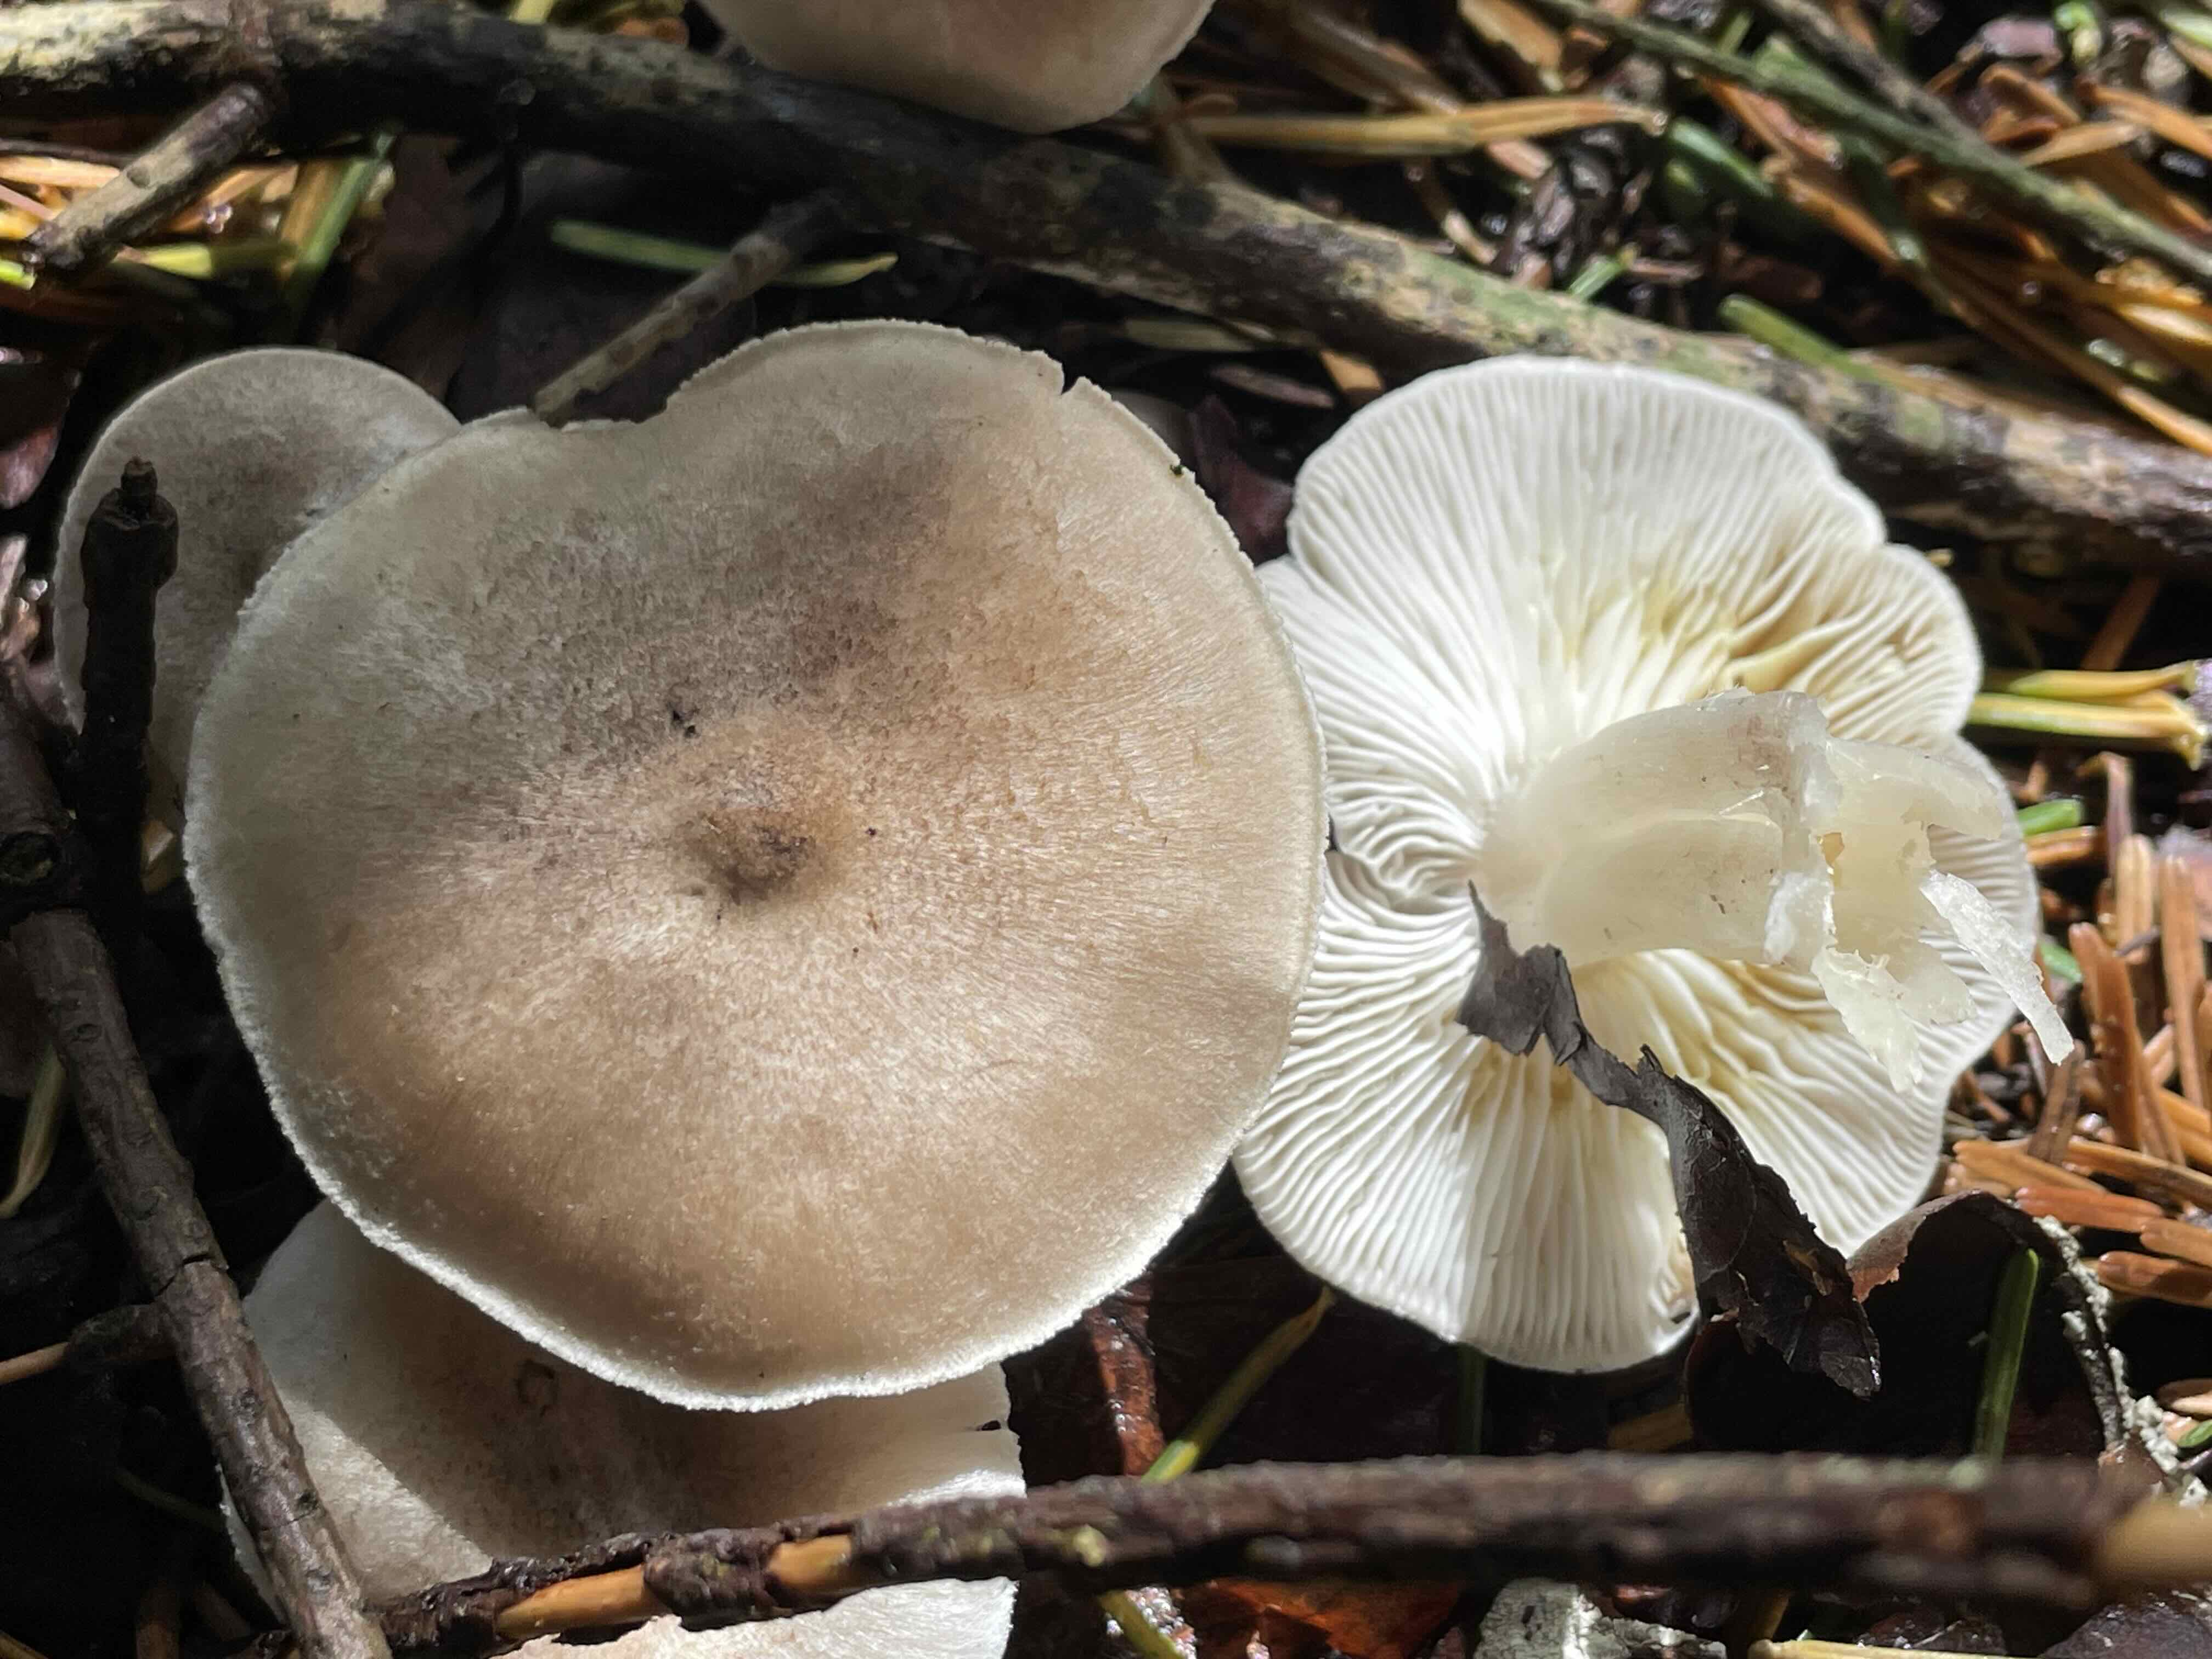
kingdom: Fungi
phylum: Basidiomycota
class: Agaricomycetes
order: Agaricales
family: Tricholomataceae
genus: Tricholoma
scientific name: Tricholoma scalpturatum
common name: gulplettet ridderhat
